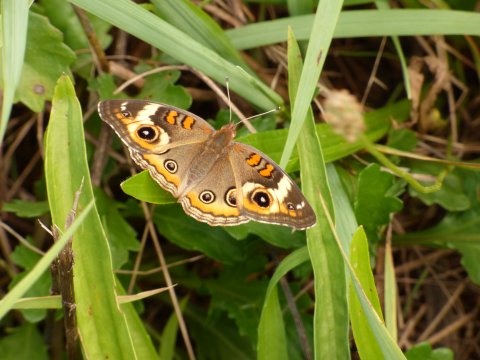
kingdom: Animalia
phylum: Arthropoda
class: Insecta
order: Lepidoptera
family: Nymphalidae
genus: Junonia
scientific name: Junonia coenia
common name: Common Buckeye
